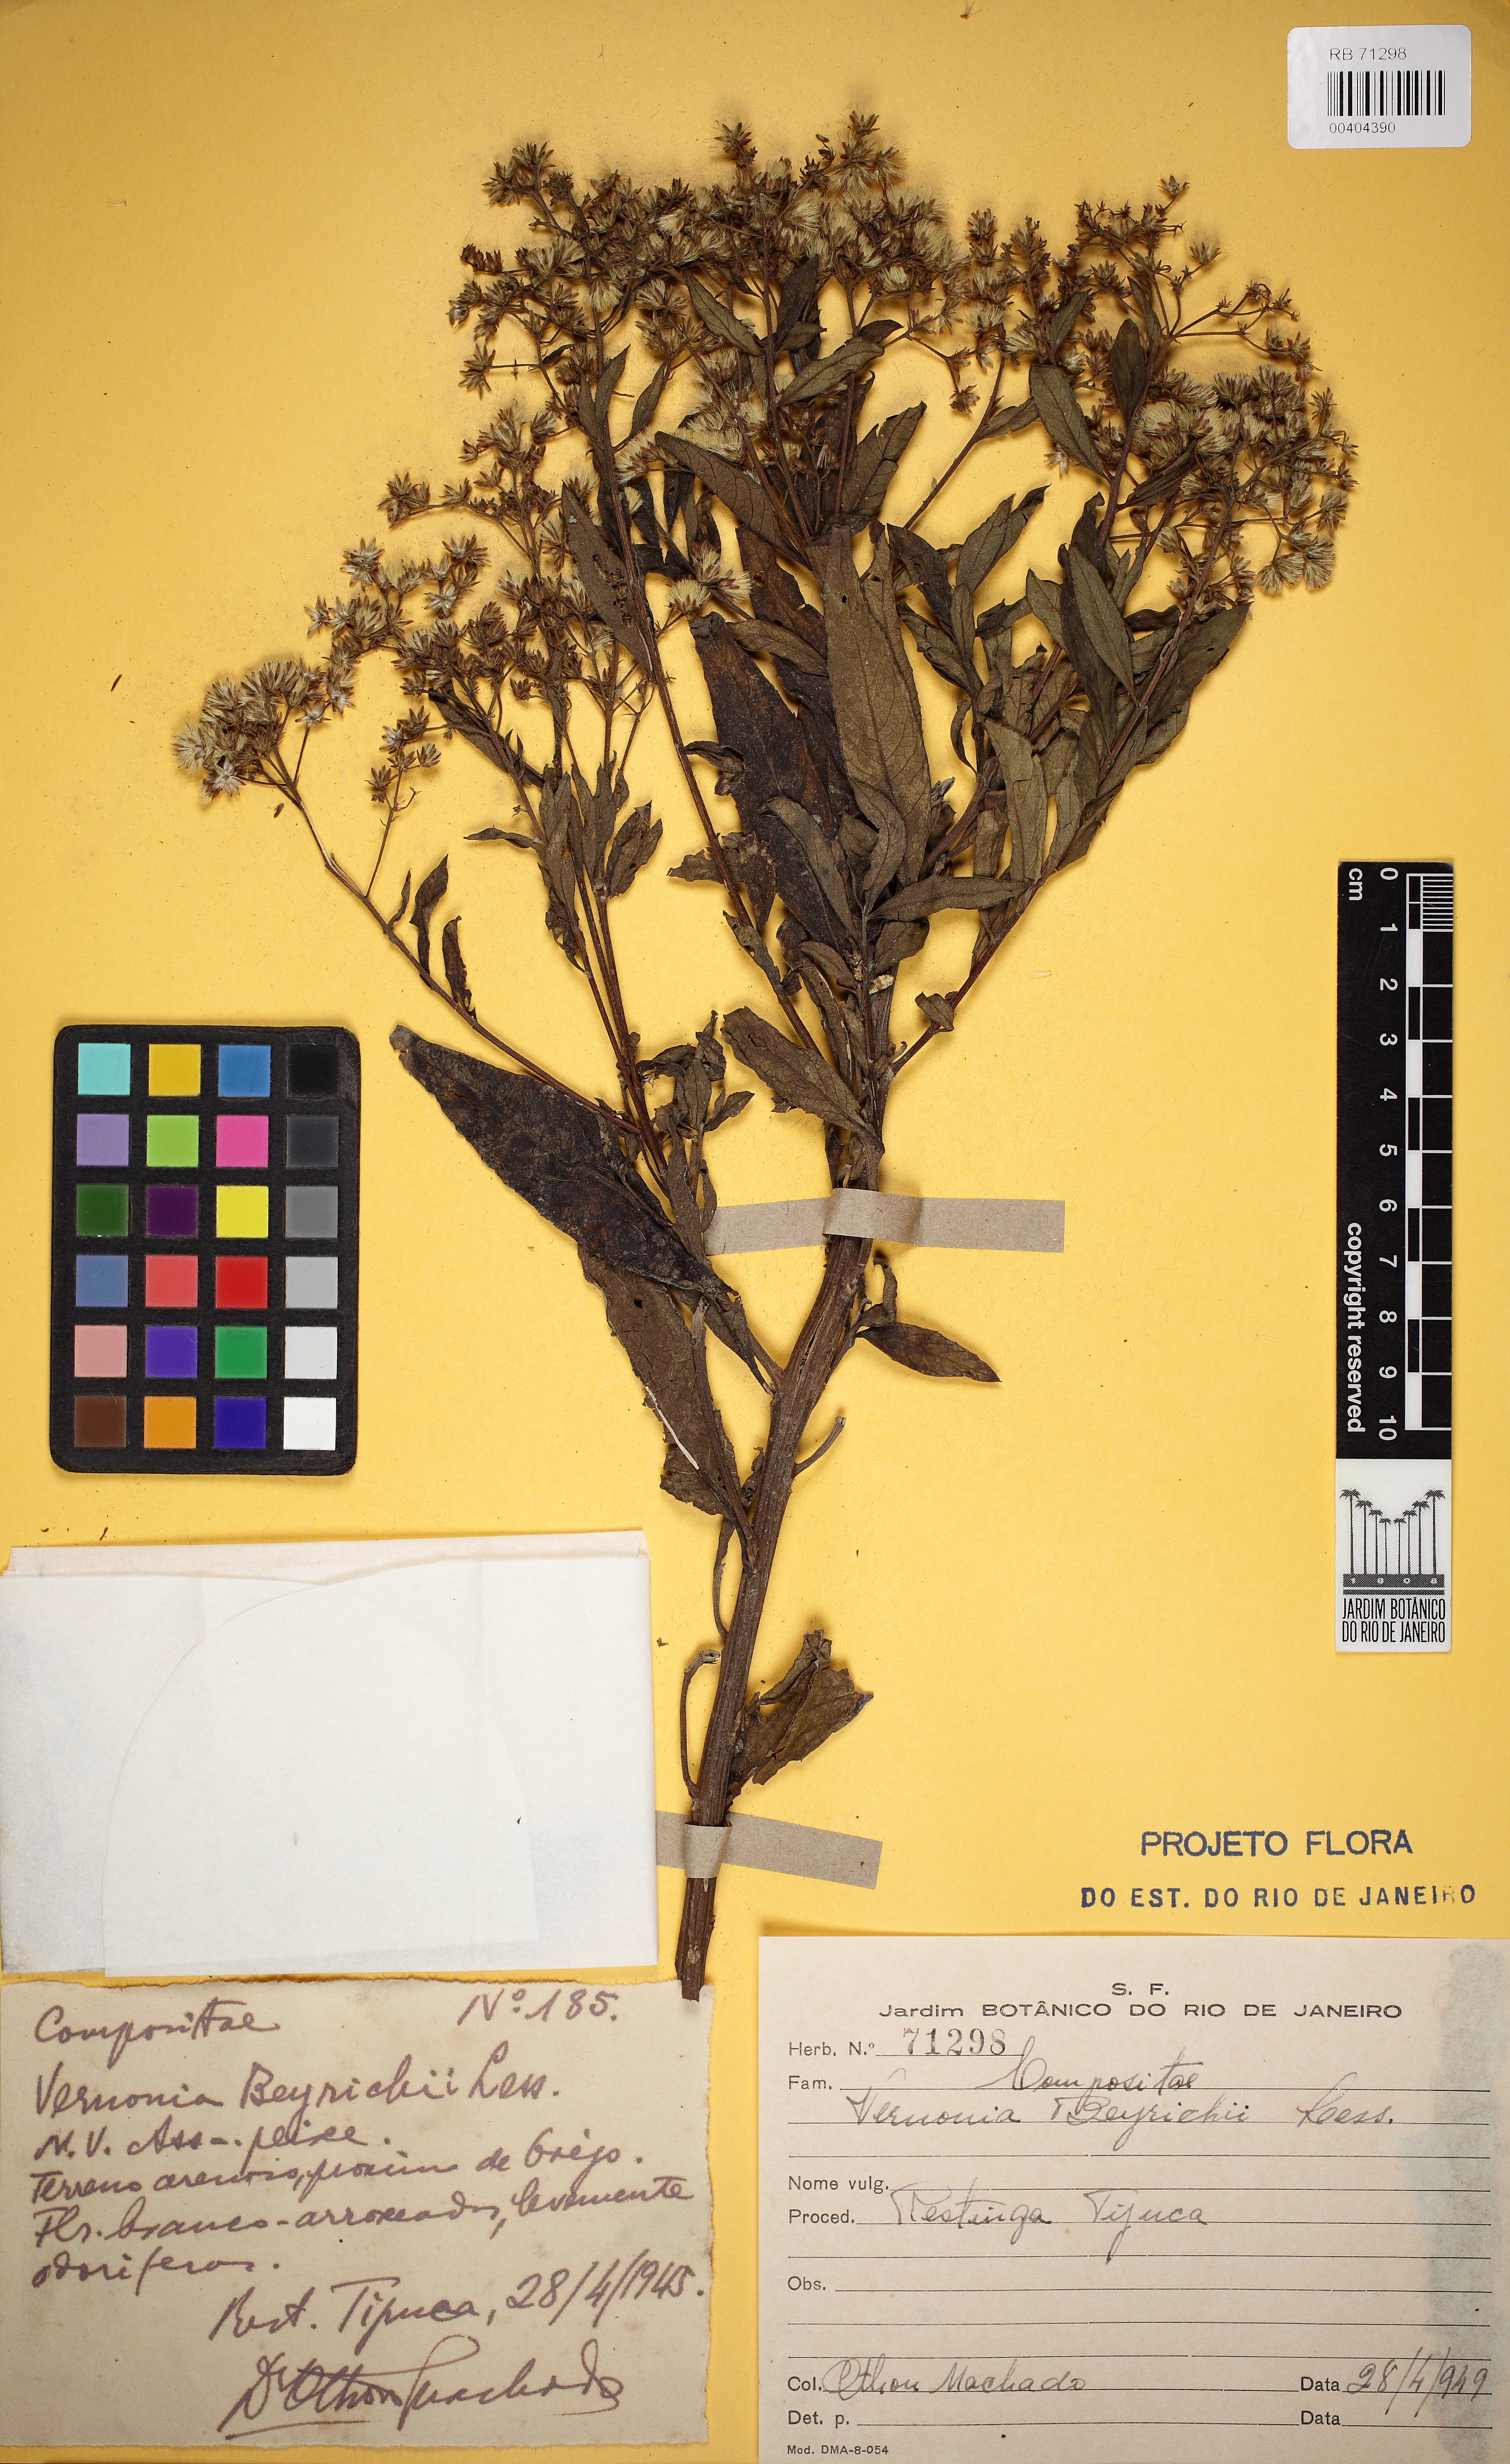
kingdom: Plantae
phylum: Tracheophyta
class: Magnoliopsida
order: Asterales
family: Asteraceae
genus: Vernonanthura
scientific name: Vernonanthura beyrichii
